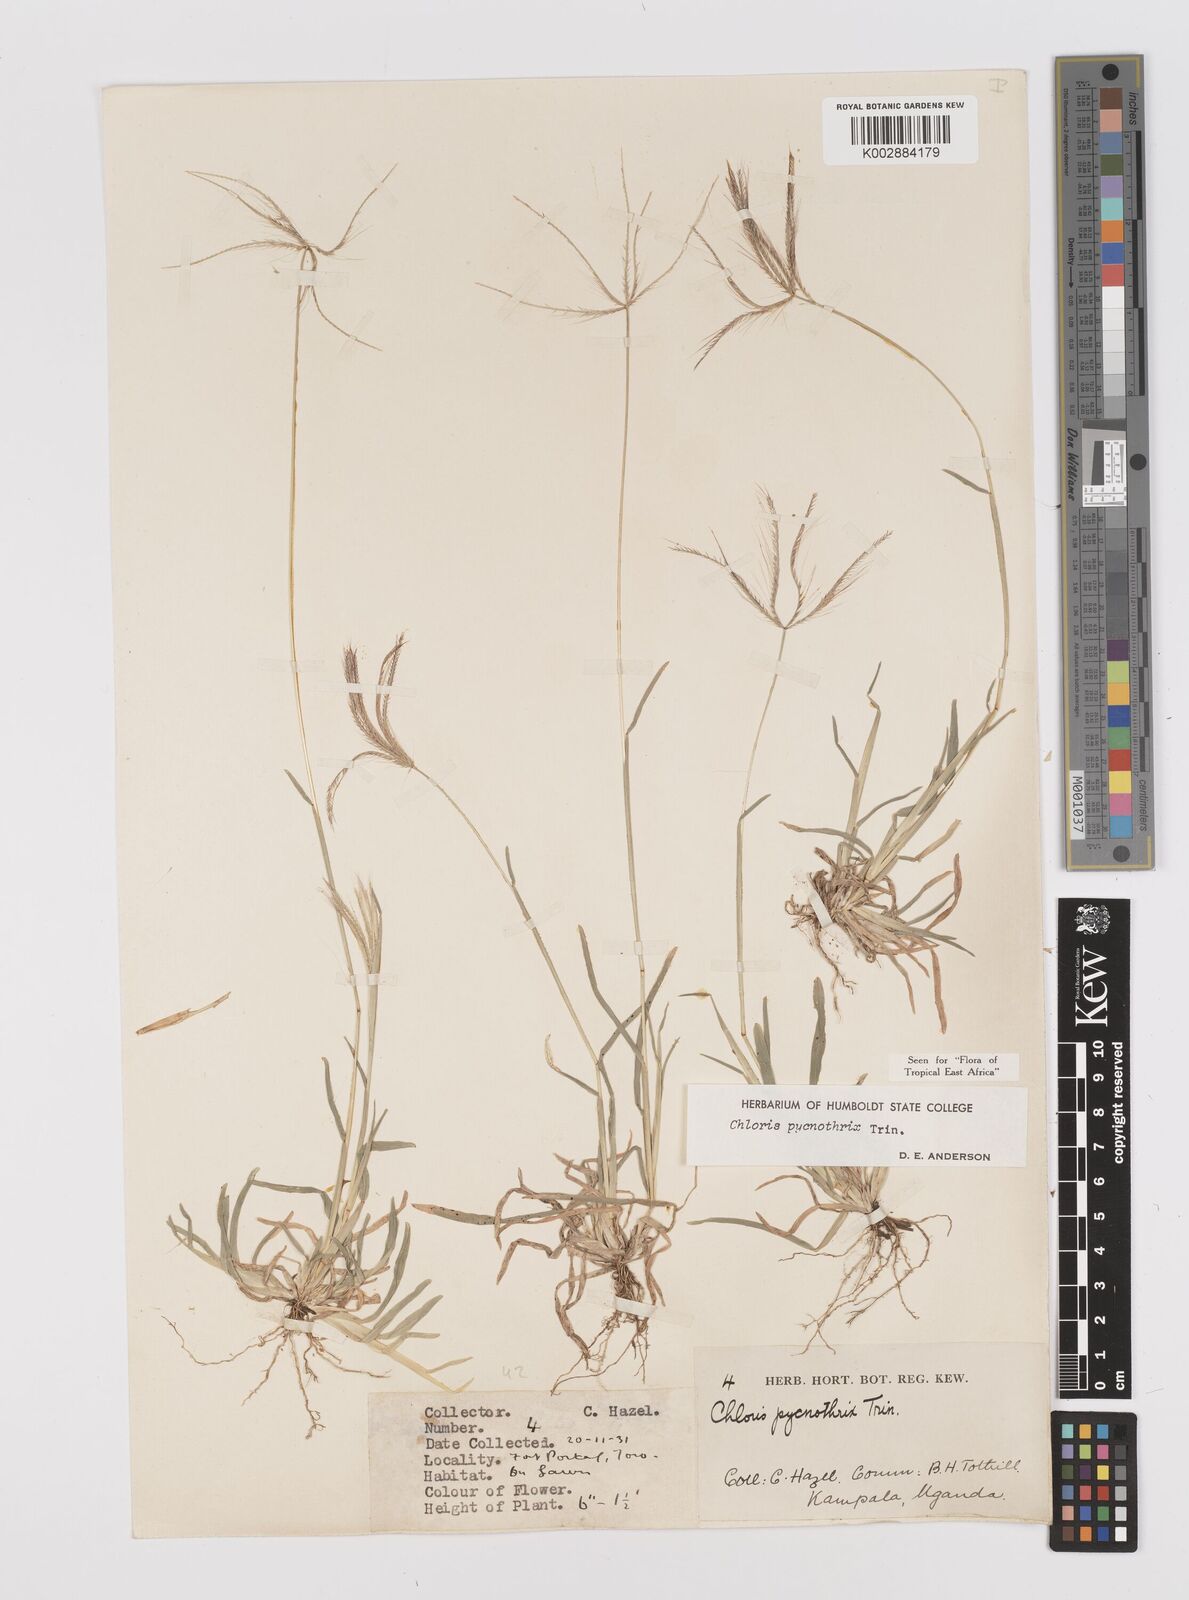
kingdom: Plantae
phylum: Tracheophyta
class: Liliopsida
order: Poales
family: Poaceae
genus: Chloris
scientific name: Chloris pycnothrix
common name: Spiderweb chloris
